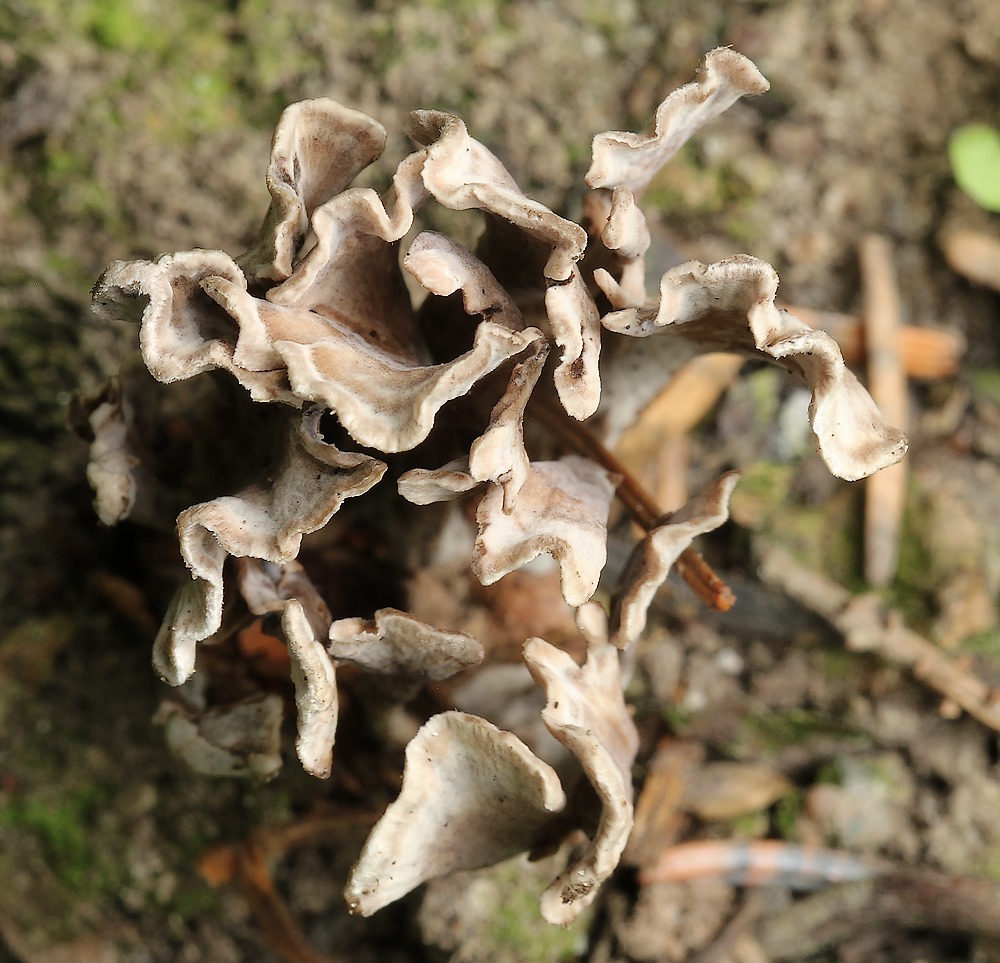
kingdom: Fungi
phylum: Basidiomycota
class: Agaricomycetes
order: Thelephorales
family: Thelephoraceae
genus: Thelephora
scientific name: Thelephora palmata
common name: grenet frynsesvamp
